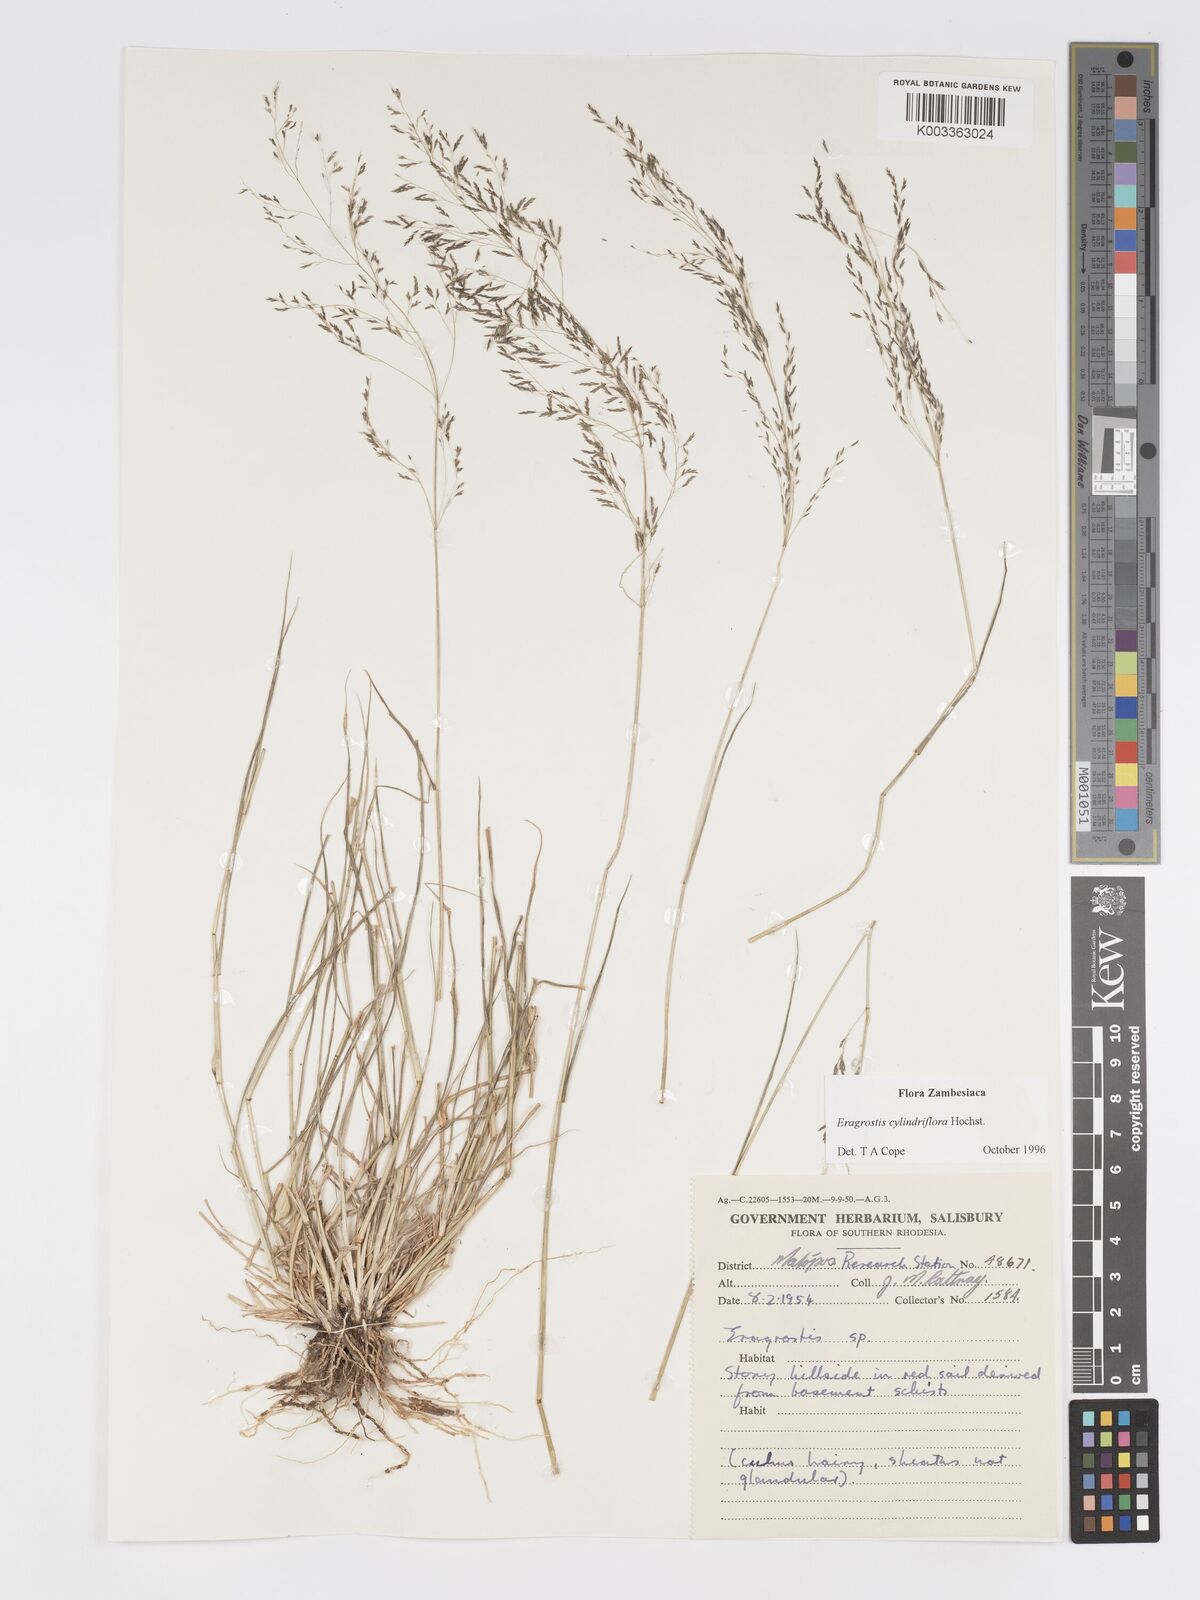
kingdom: Plantae
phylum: Tracheophyta
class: Liliopsida
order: Poales
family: Poaceae
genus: Eragrostis
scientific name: Eragrostis cylindriflora
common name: Cylinderflower lovegrass
